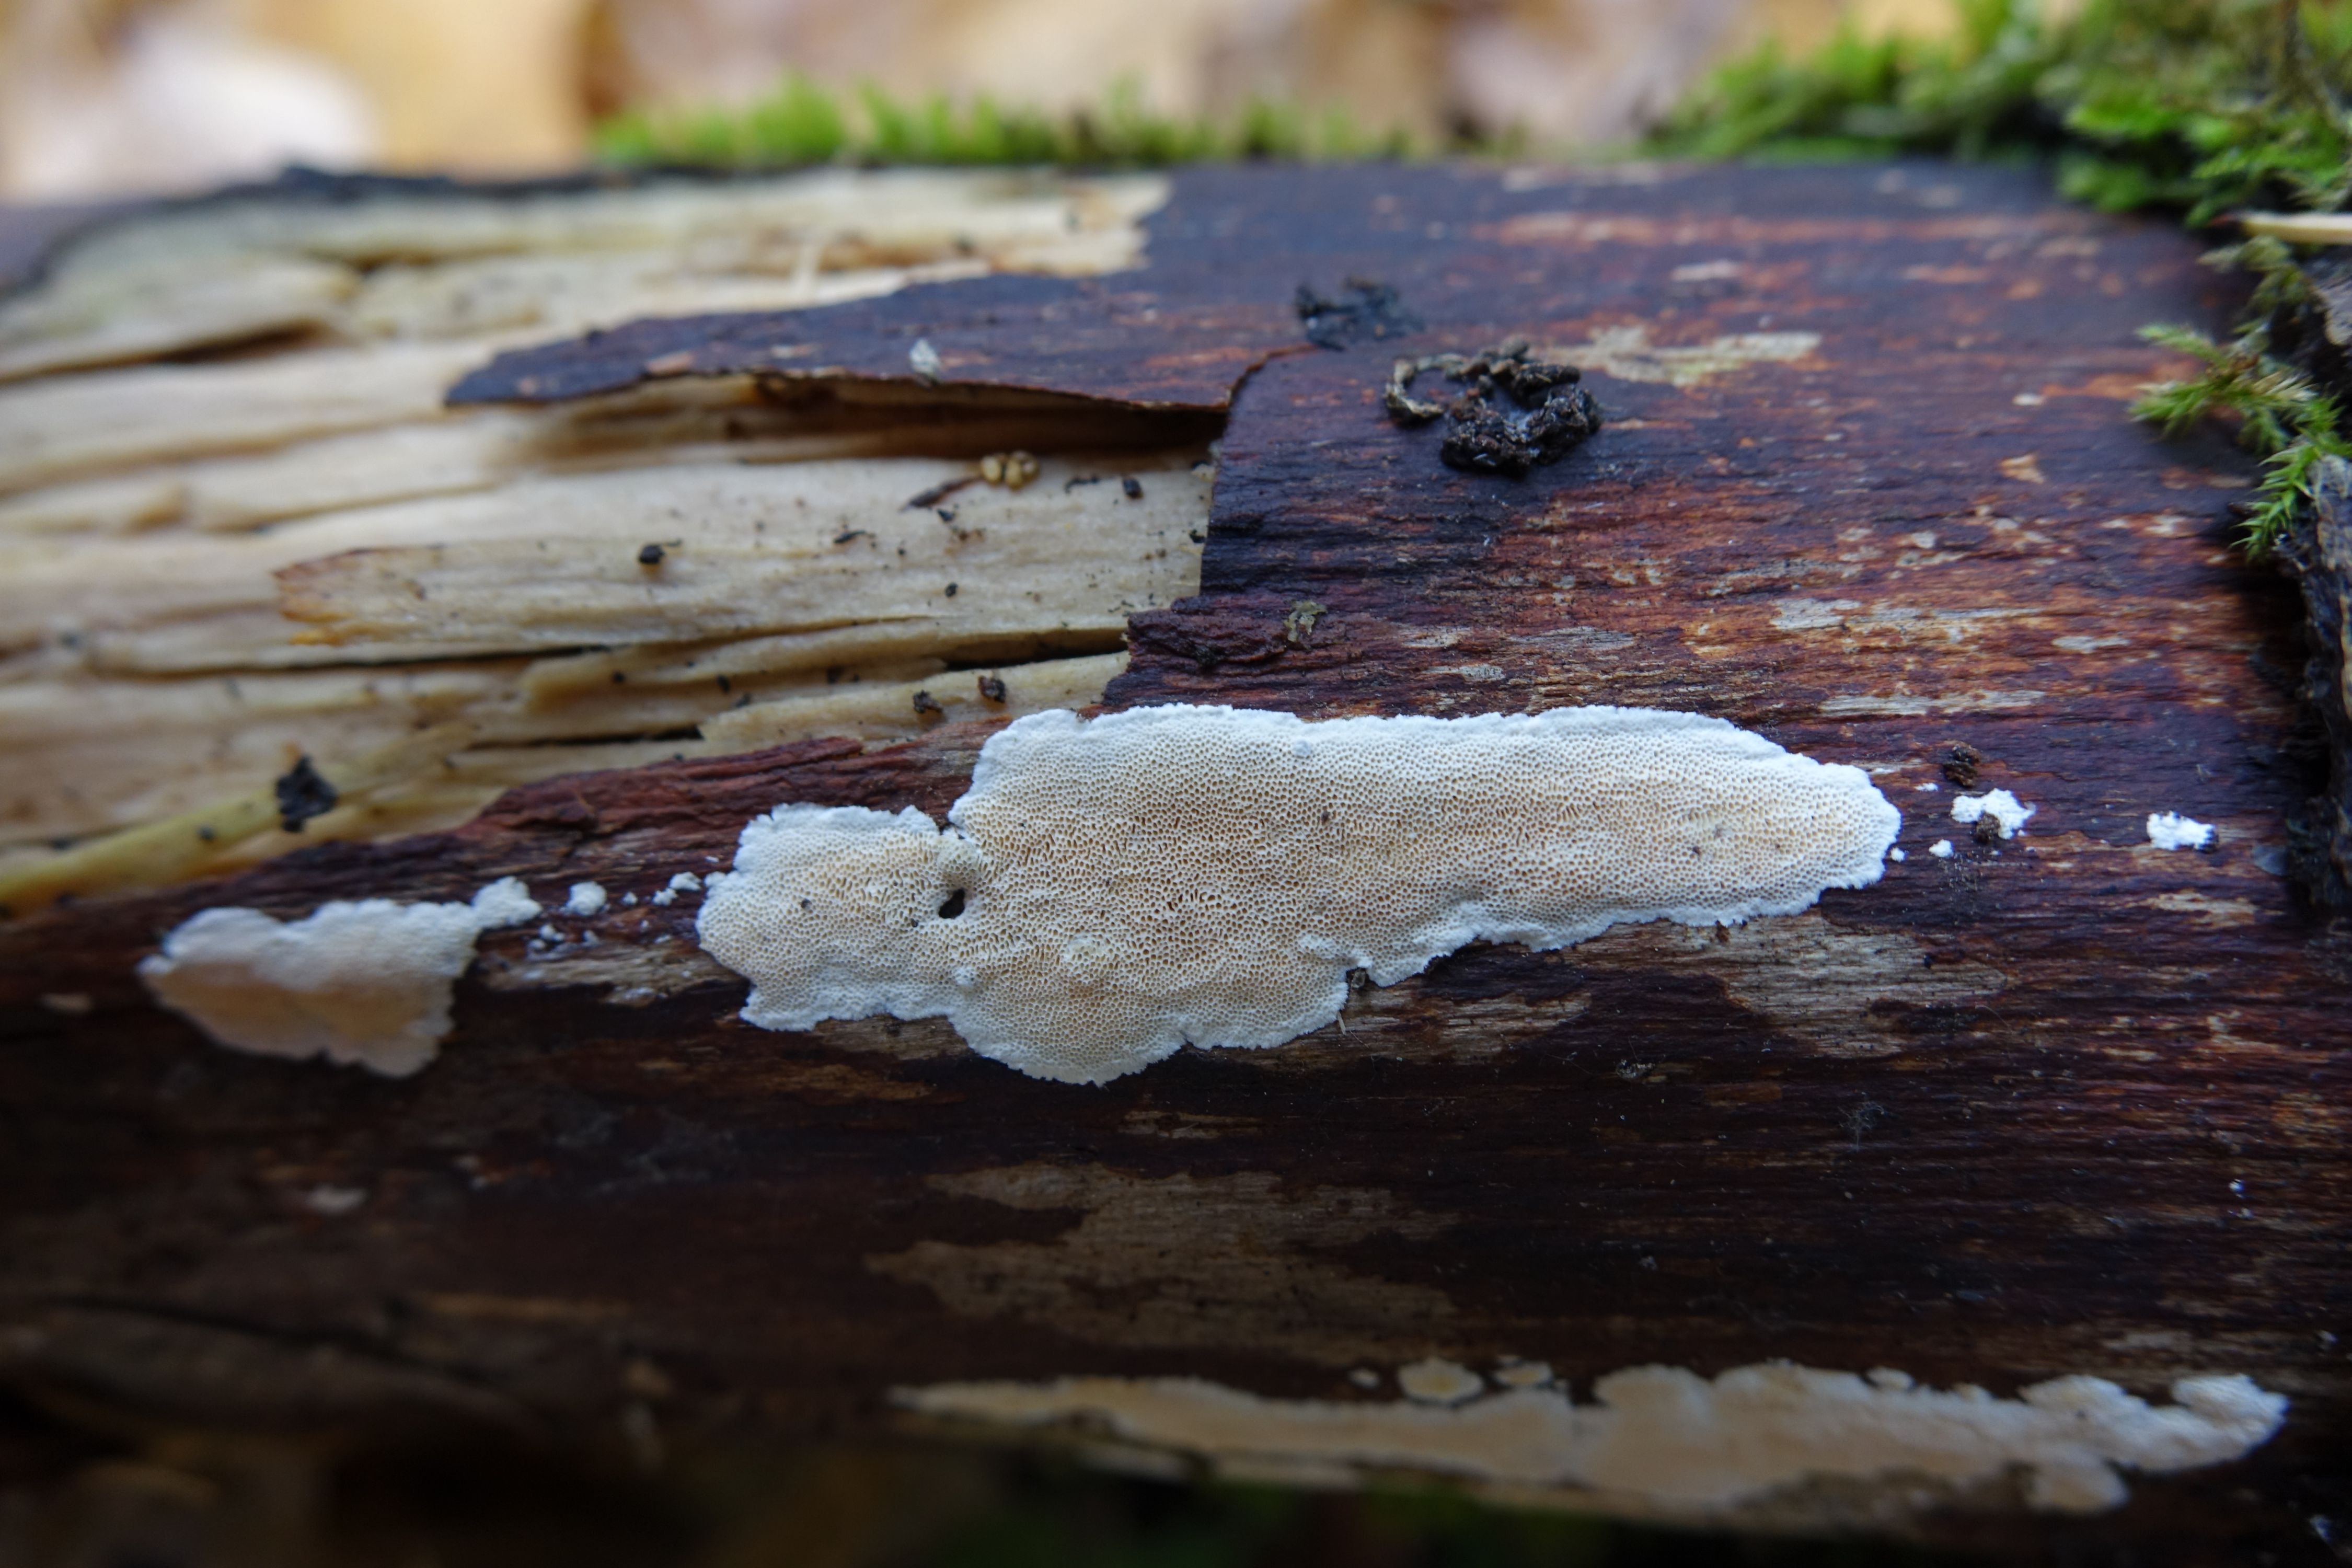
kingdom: Fungi
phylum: Basidiomycota
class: Agaricomycetes
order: Polyporales
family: Steccherinaceae
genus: Junghuhnia
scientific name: Junghuhnia nitida
